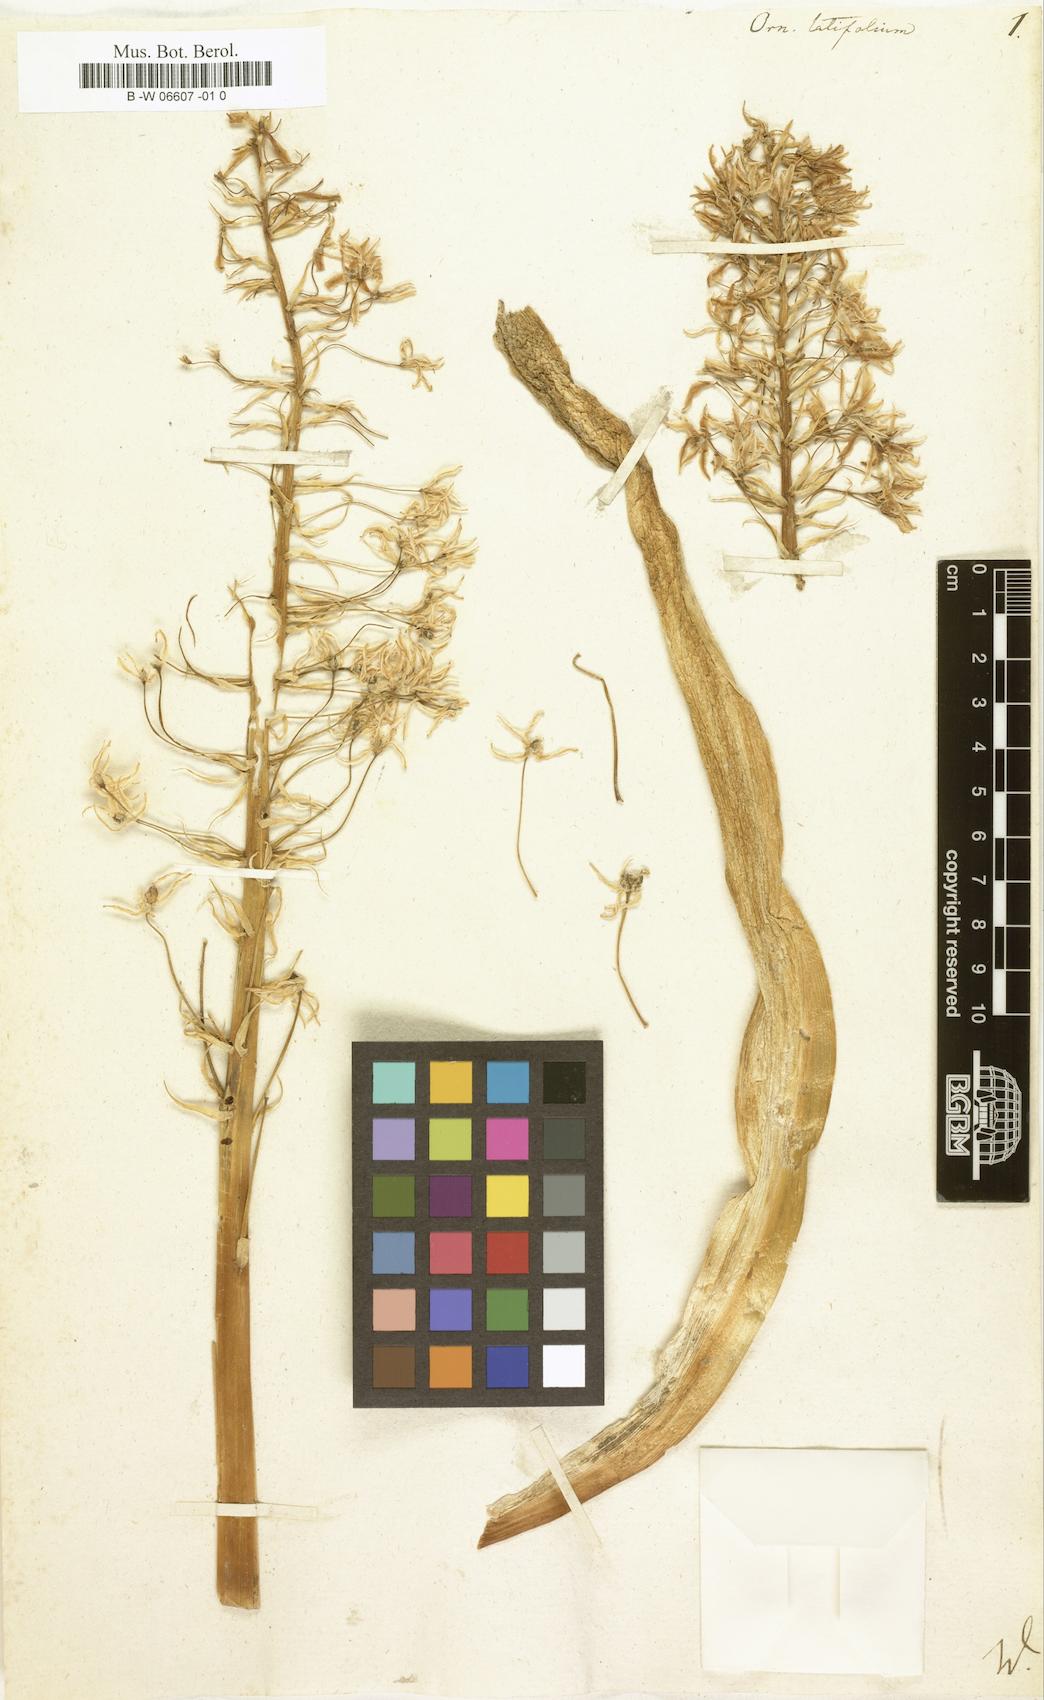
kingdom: Plantae
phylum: Tracheophyta
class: Liliopsida
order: Asparagales
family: Asparagaceae
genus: Ornithogalum
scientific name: Ornithogalum latifolium
